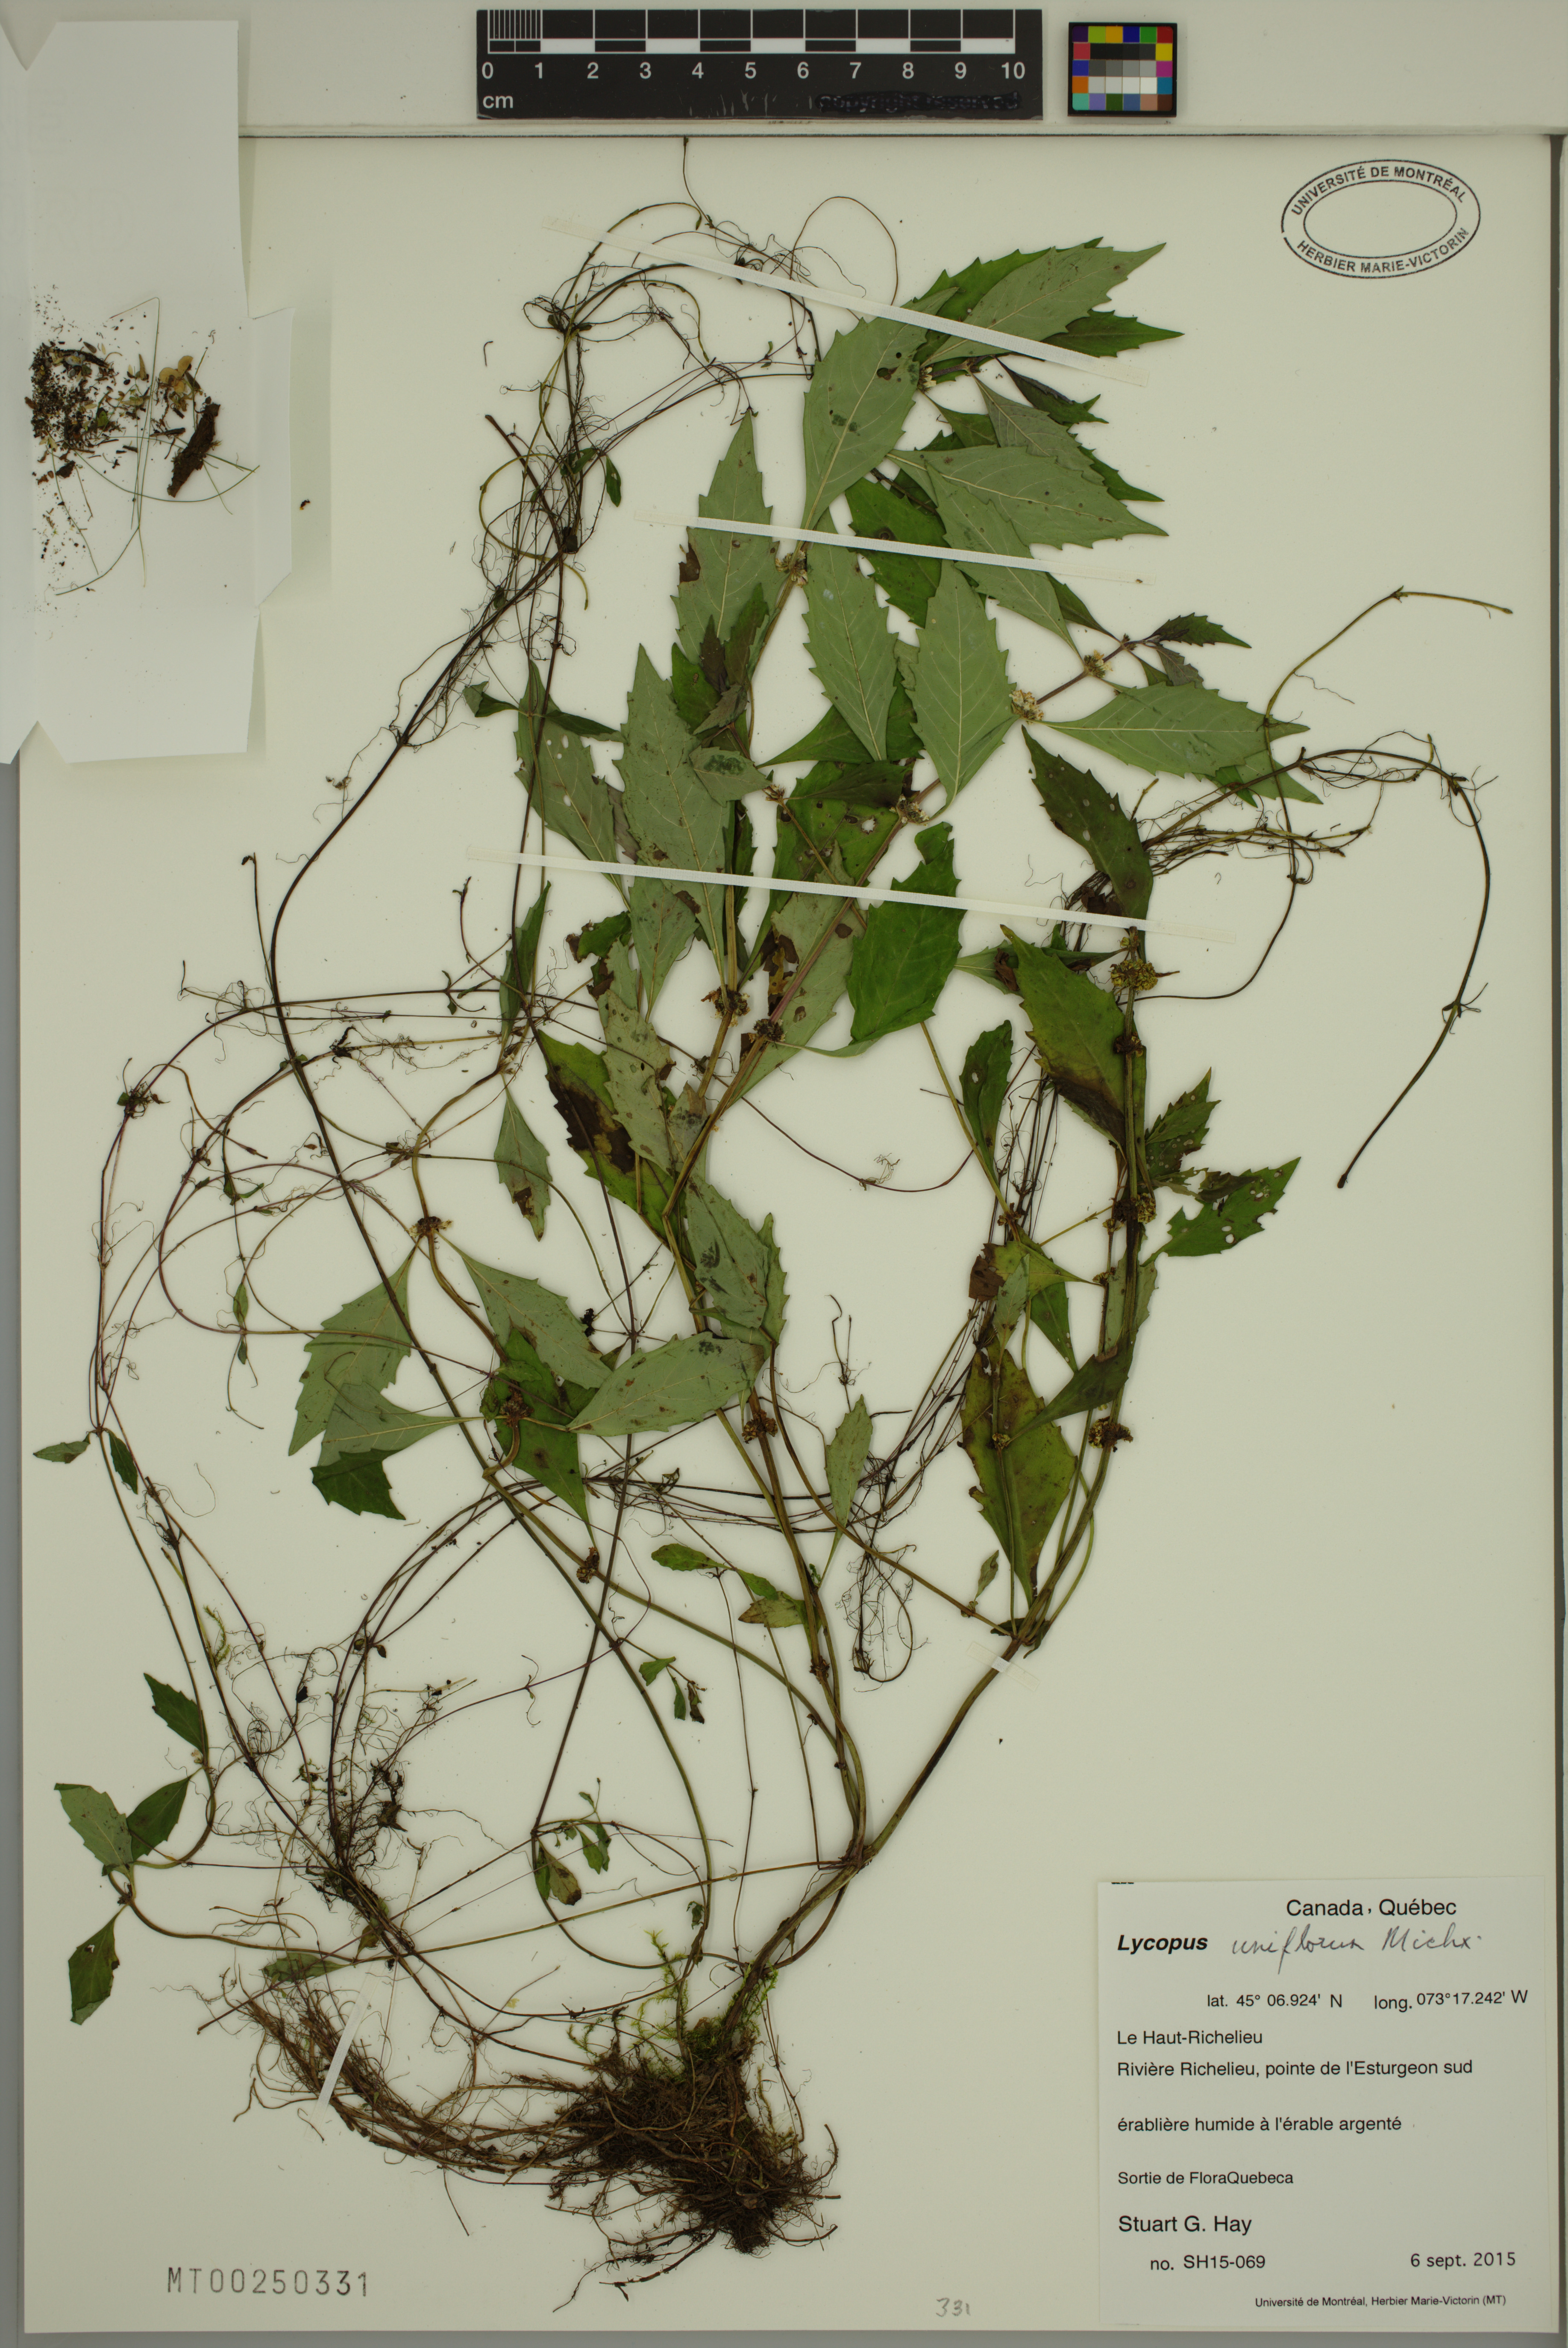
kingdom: Plantae
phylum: Tracheophyta
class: Magnoliopsida
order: Lamiales
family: Lamiaceae
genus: Lycopus
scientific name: Lycopus uniflorus
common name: Northern bugleweed
